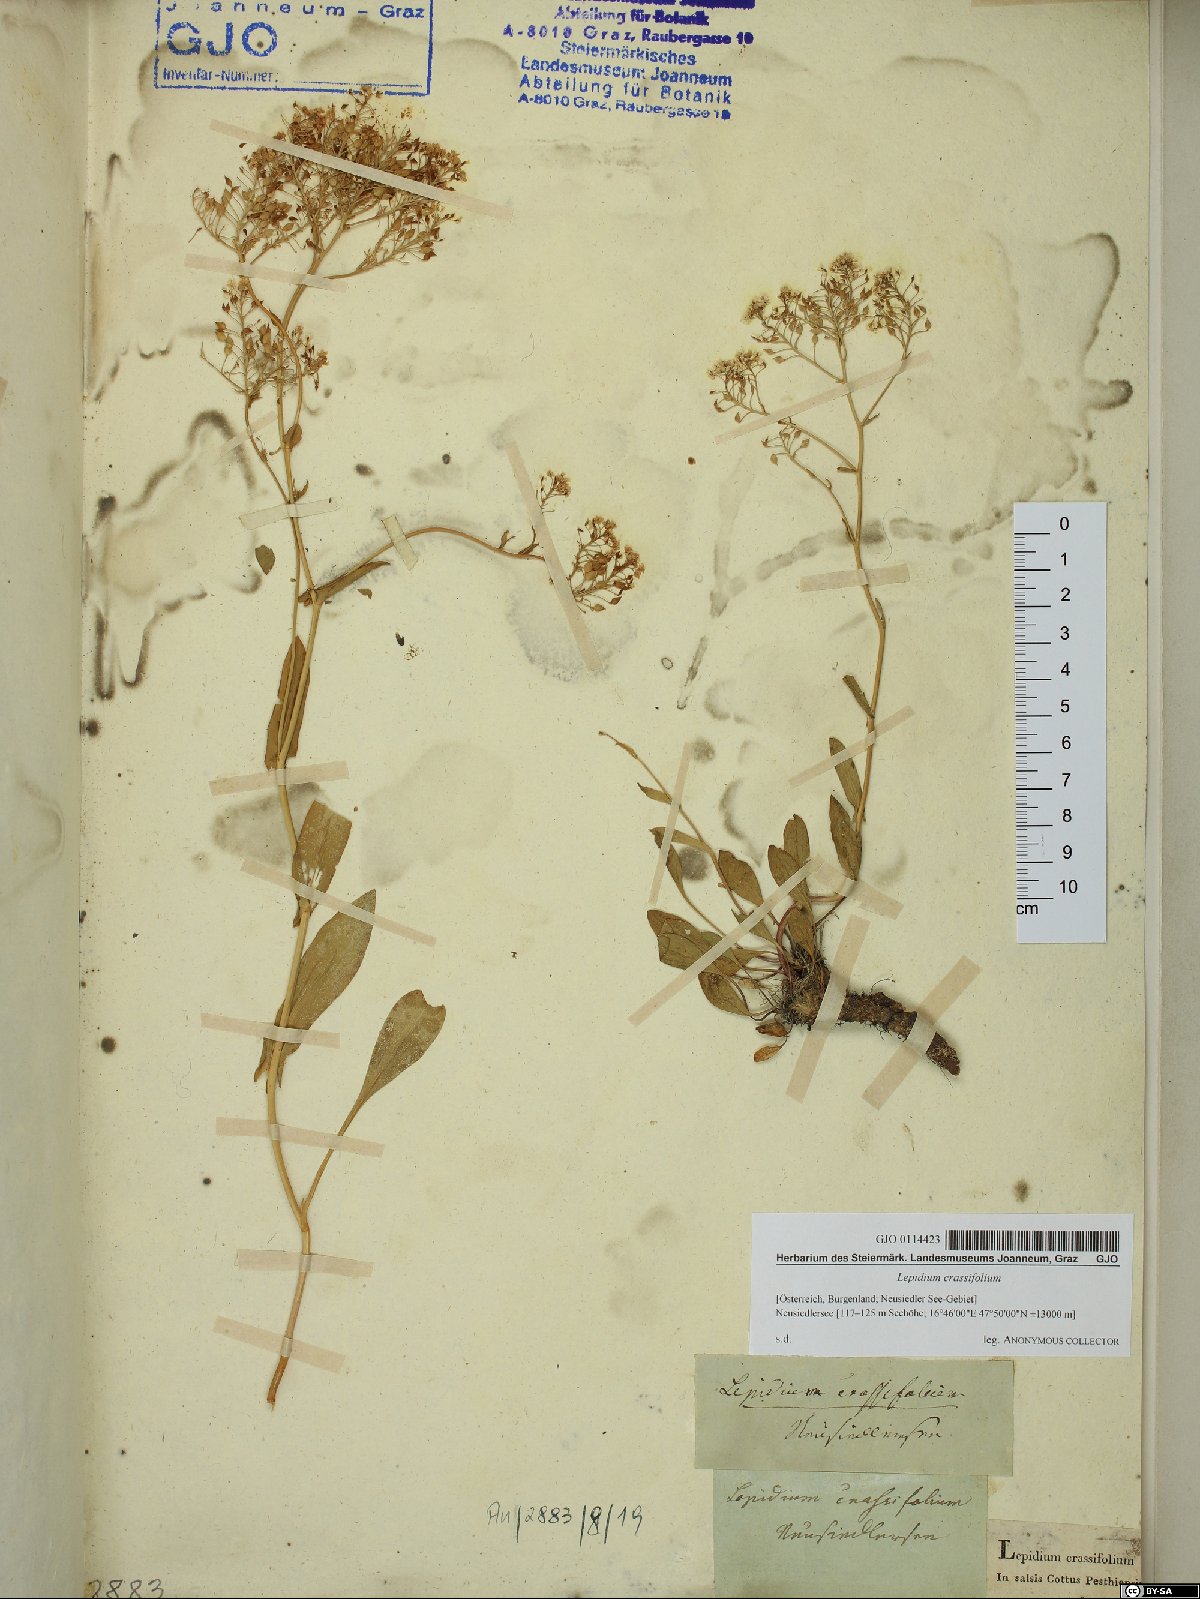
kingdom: Plantae
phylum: Tracheophyta
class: Magnoliopsida
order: Brassicales
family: Brassicaceae
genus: Lepidium
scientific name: Lepidium cartilagineum
